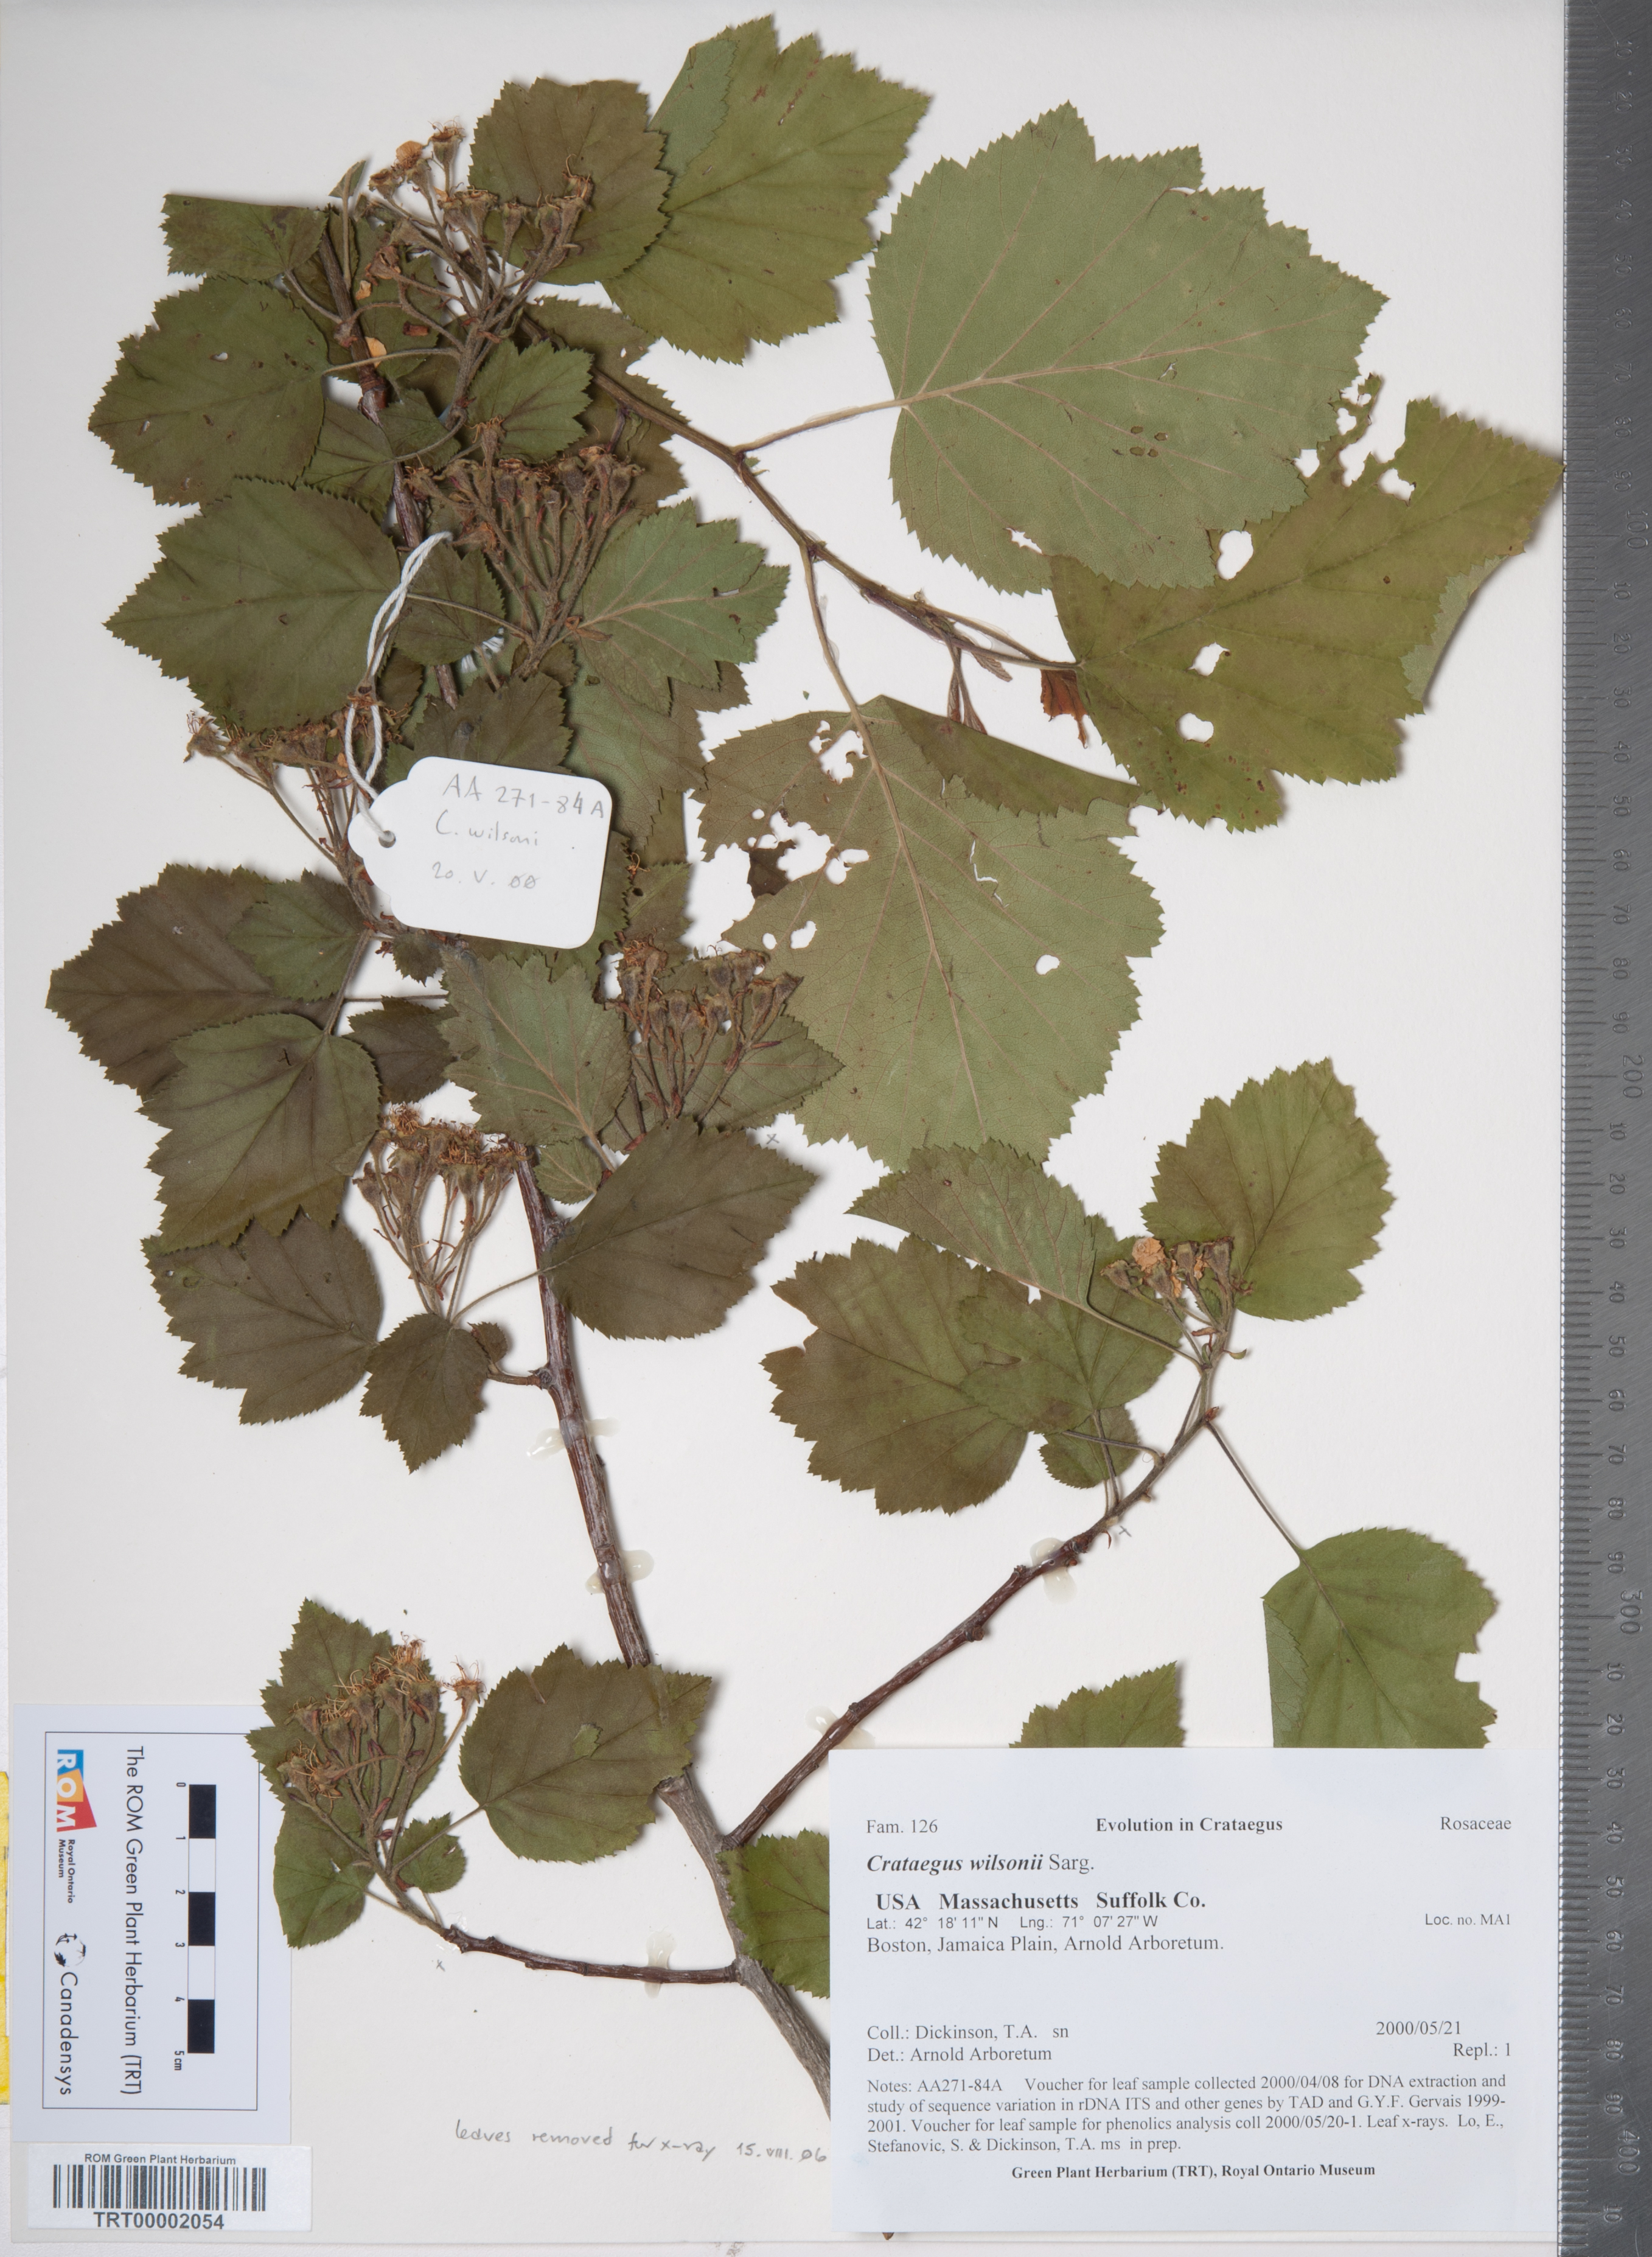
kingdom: Plantae
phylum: Tracheophyta
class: Magnoliopsida
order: Rosales
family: Rosaceae
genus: Crataegus
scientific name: Crataegus mollis
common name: Downy hawthorn
